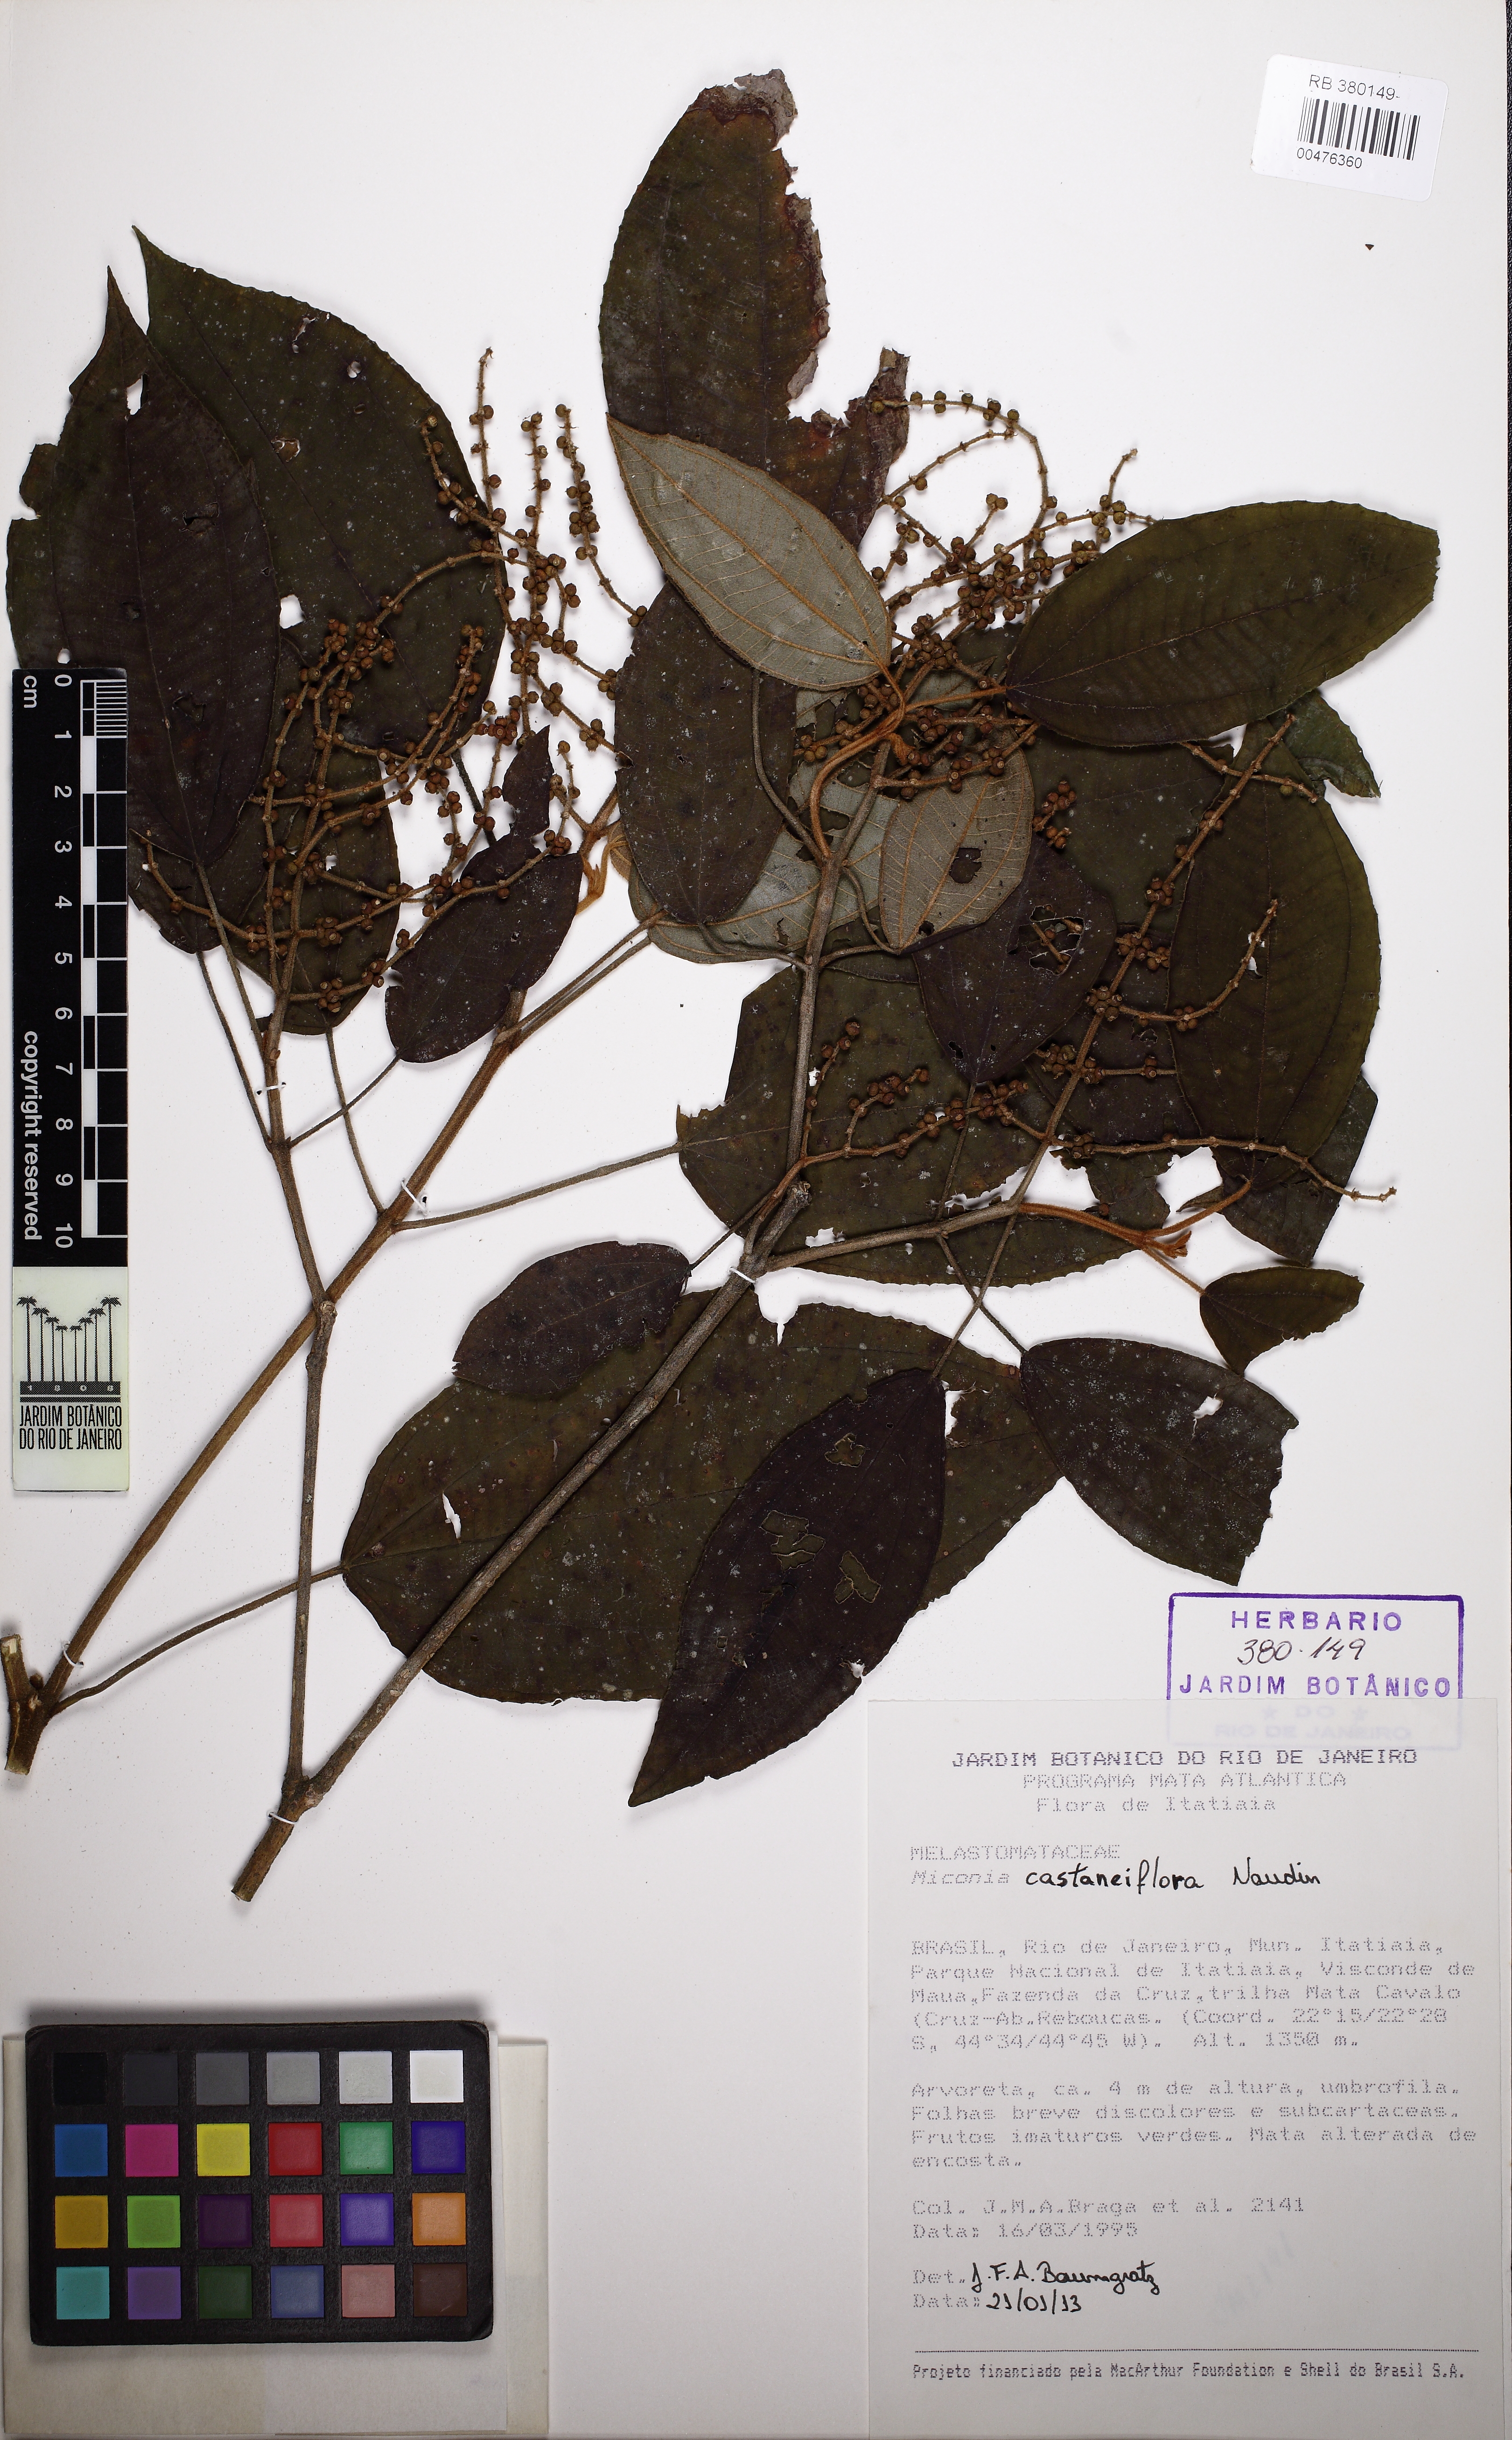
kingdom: Plantae
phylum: Tracheophyta
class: Magnoliopsida
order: Myrtales
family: Melastomataceae
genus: Miconia
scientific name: Miconia
